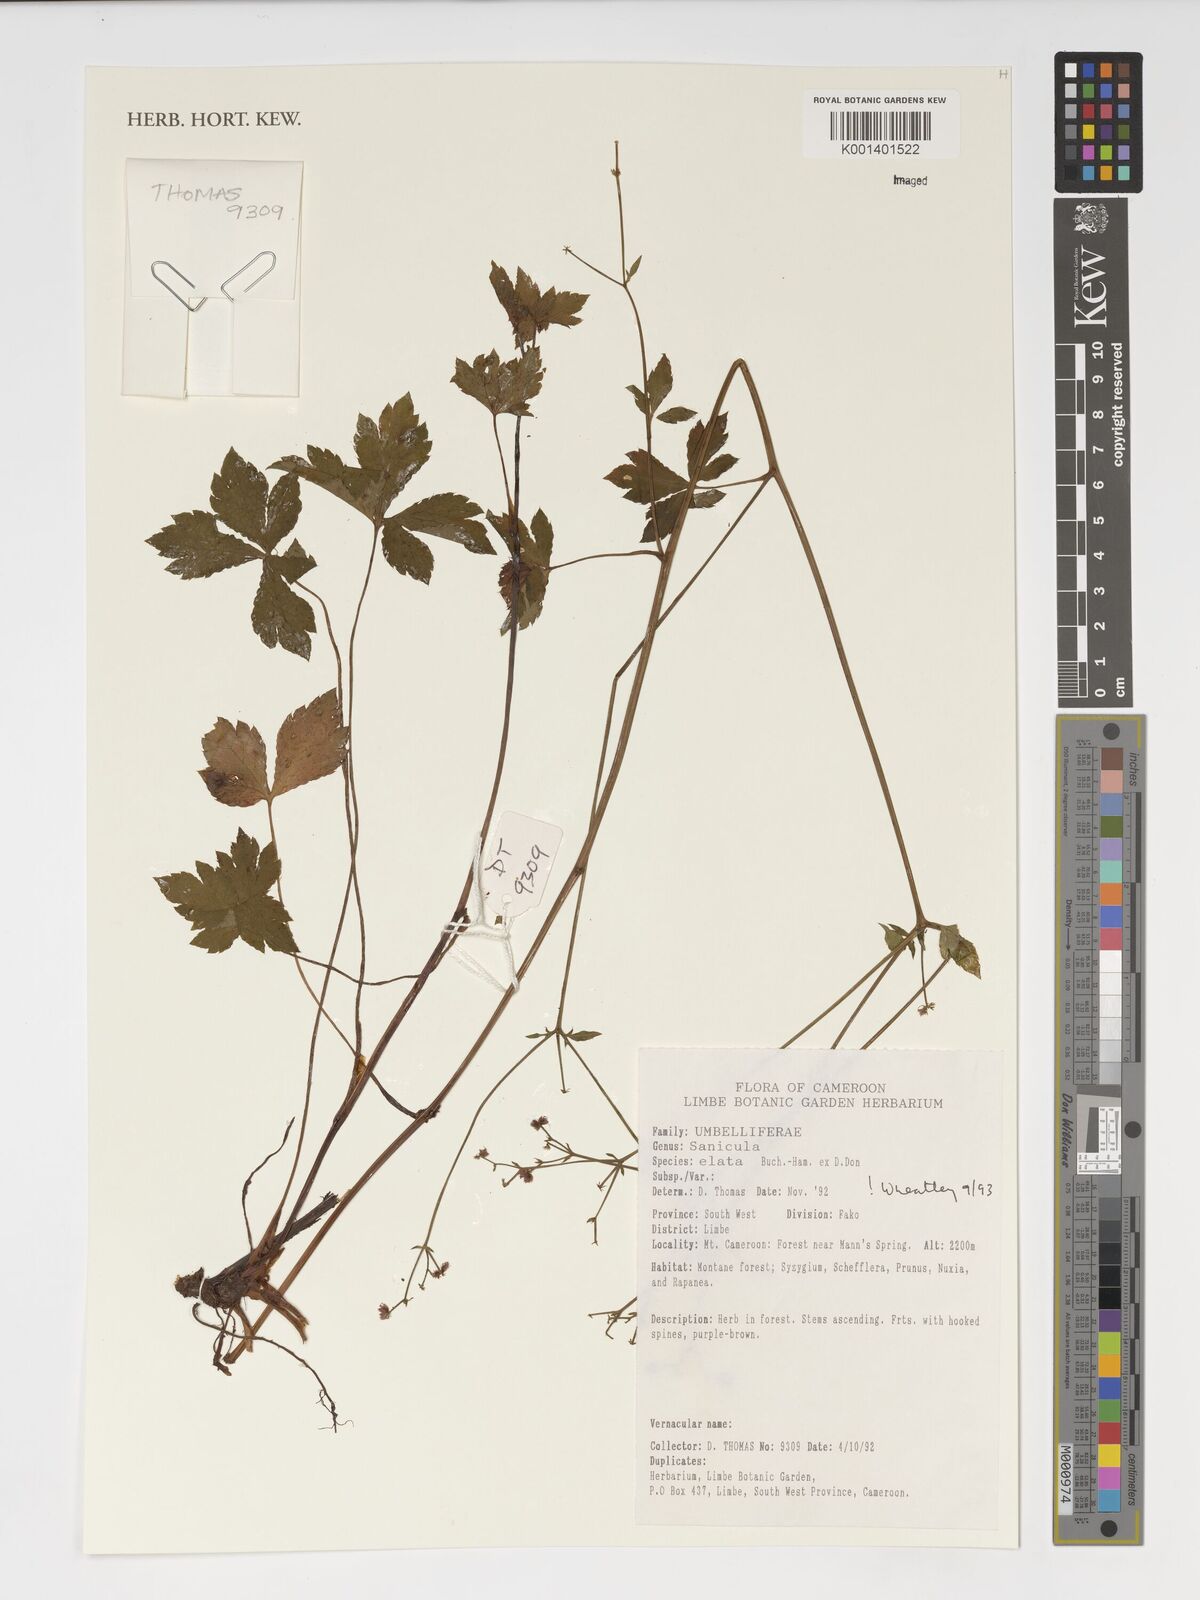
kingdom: Plantae
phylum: Tracheophyta
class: Magnoliopsida
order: Apiales
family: Apiaceae
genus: Sanicula
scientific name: Sanicula elata
